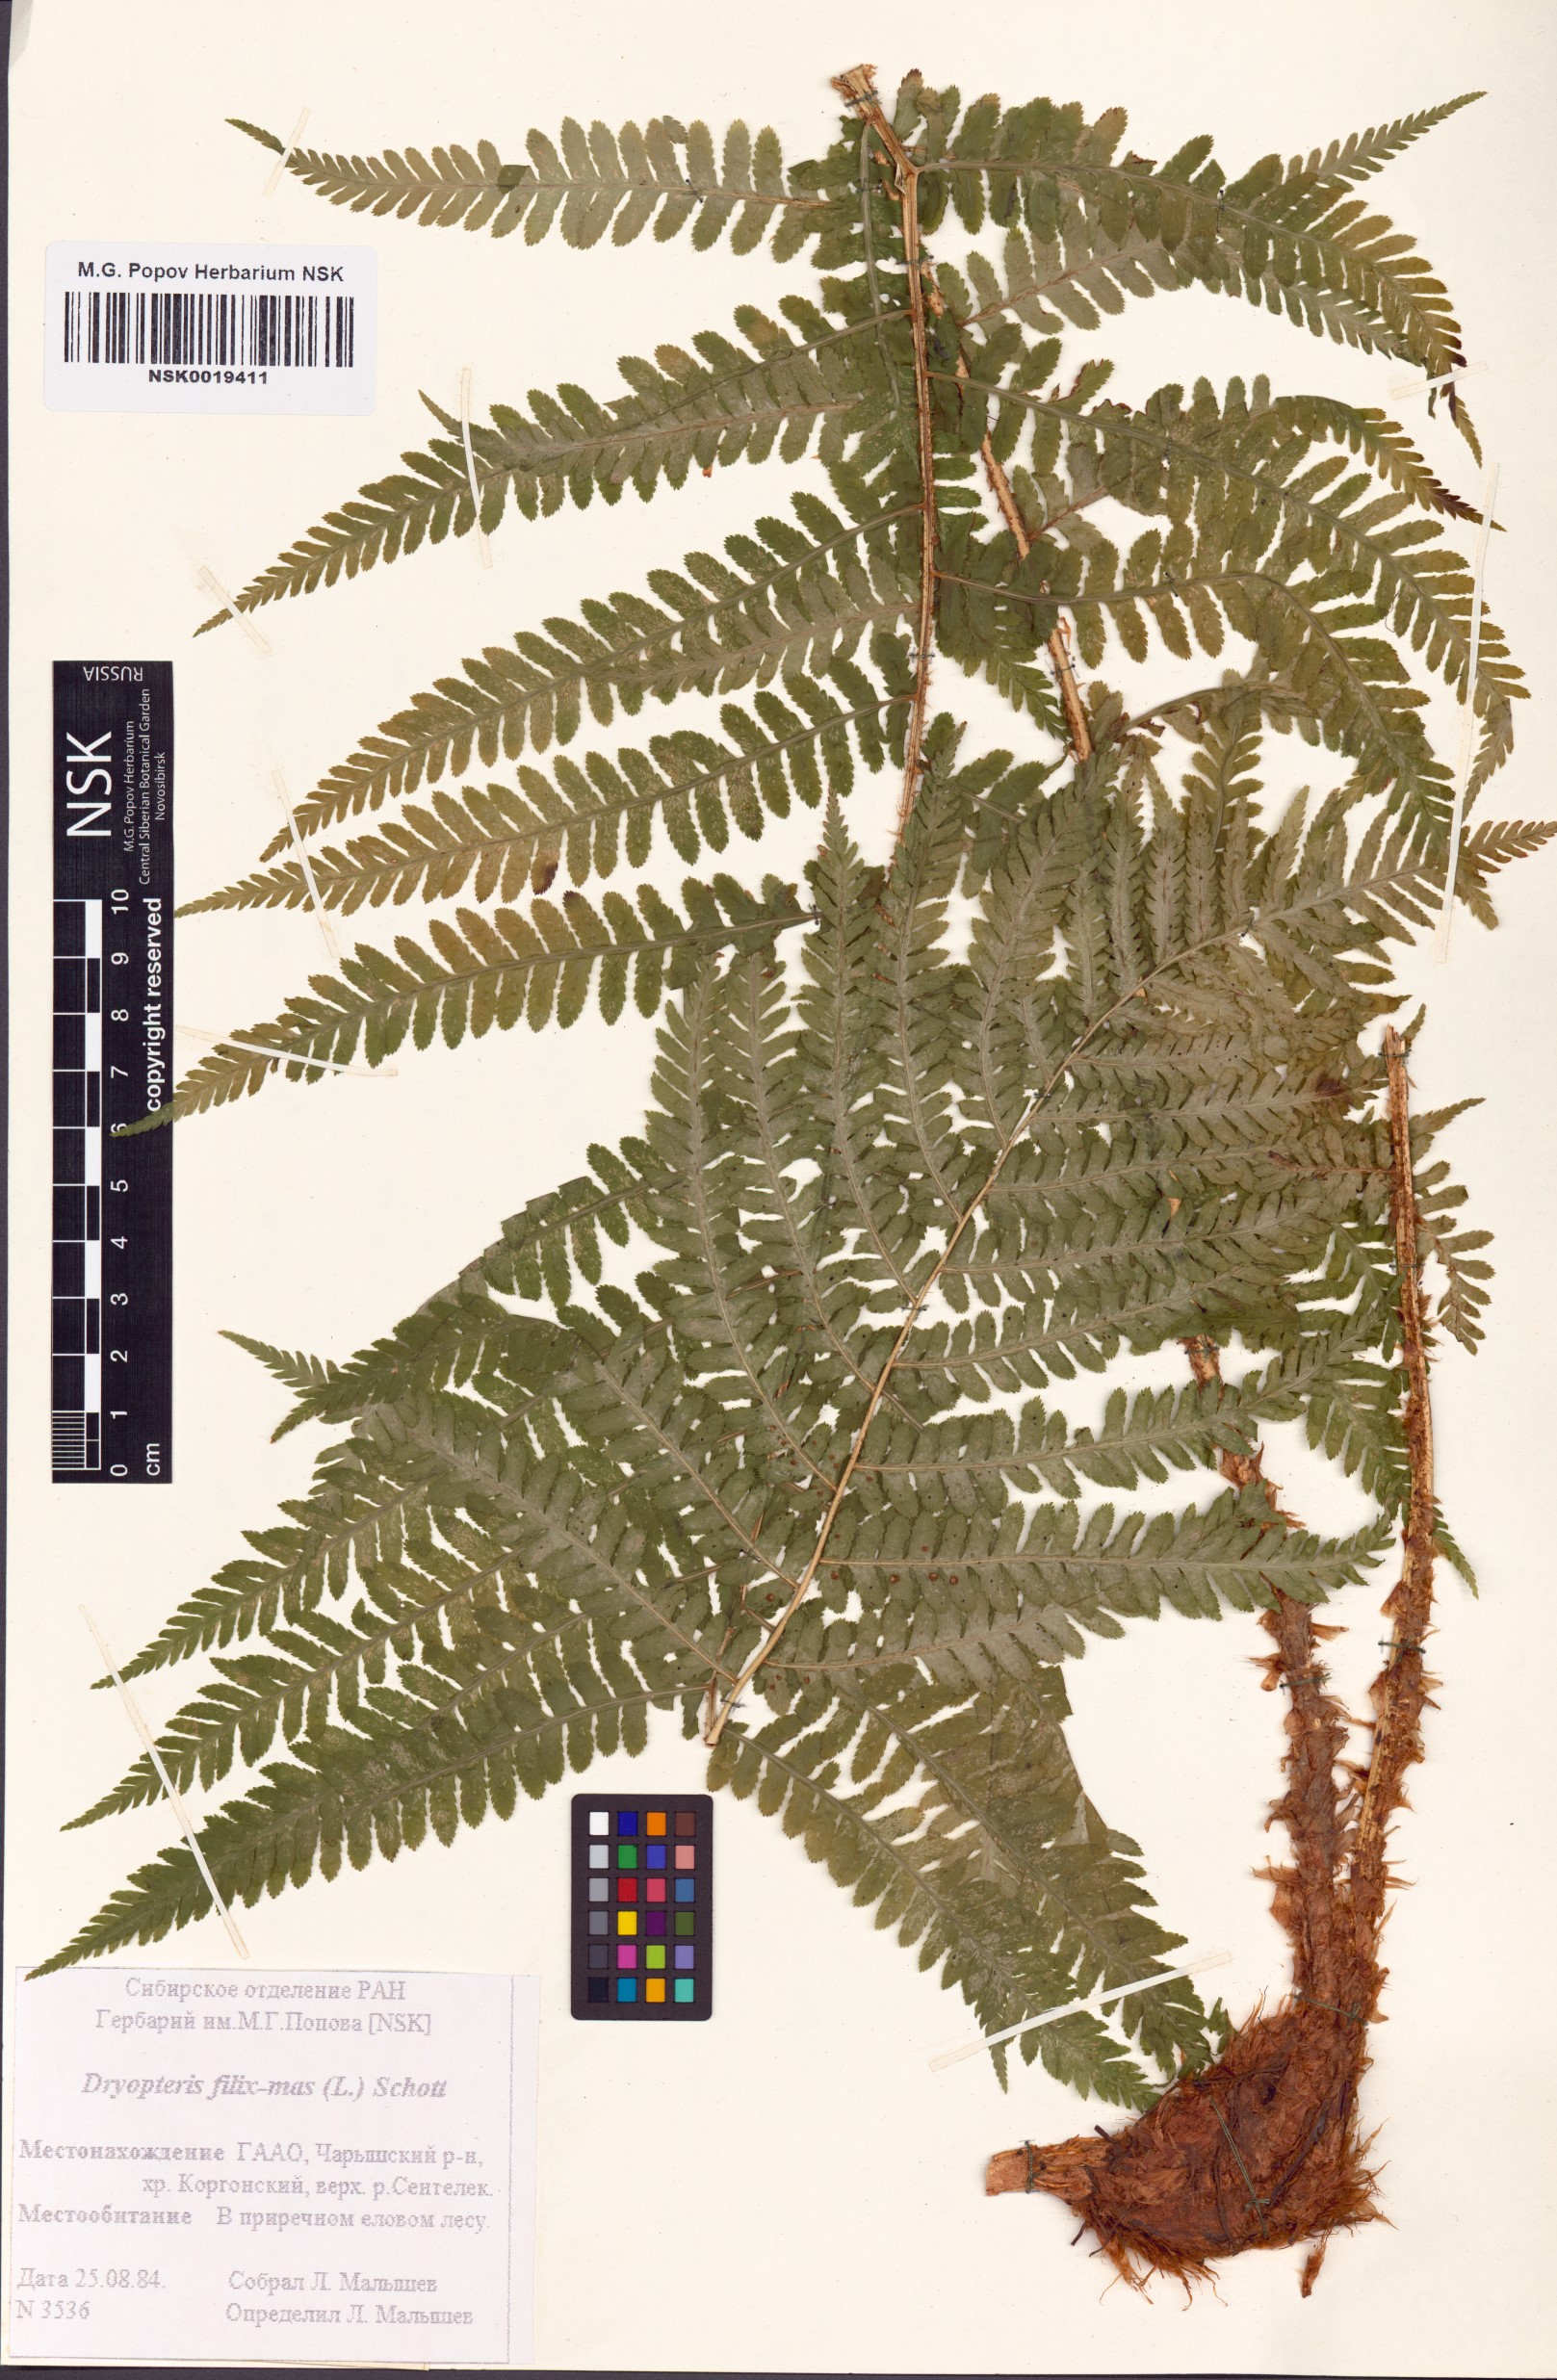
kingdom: Plantae
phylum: Tracheophyta
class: Polypodiopsida
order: Polypodiales
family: Dryopteridaceae
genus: Dryopteris
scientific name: Dryopteris filix-mas
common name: Male fern
